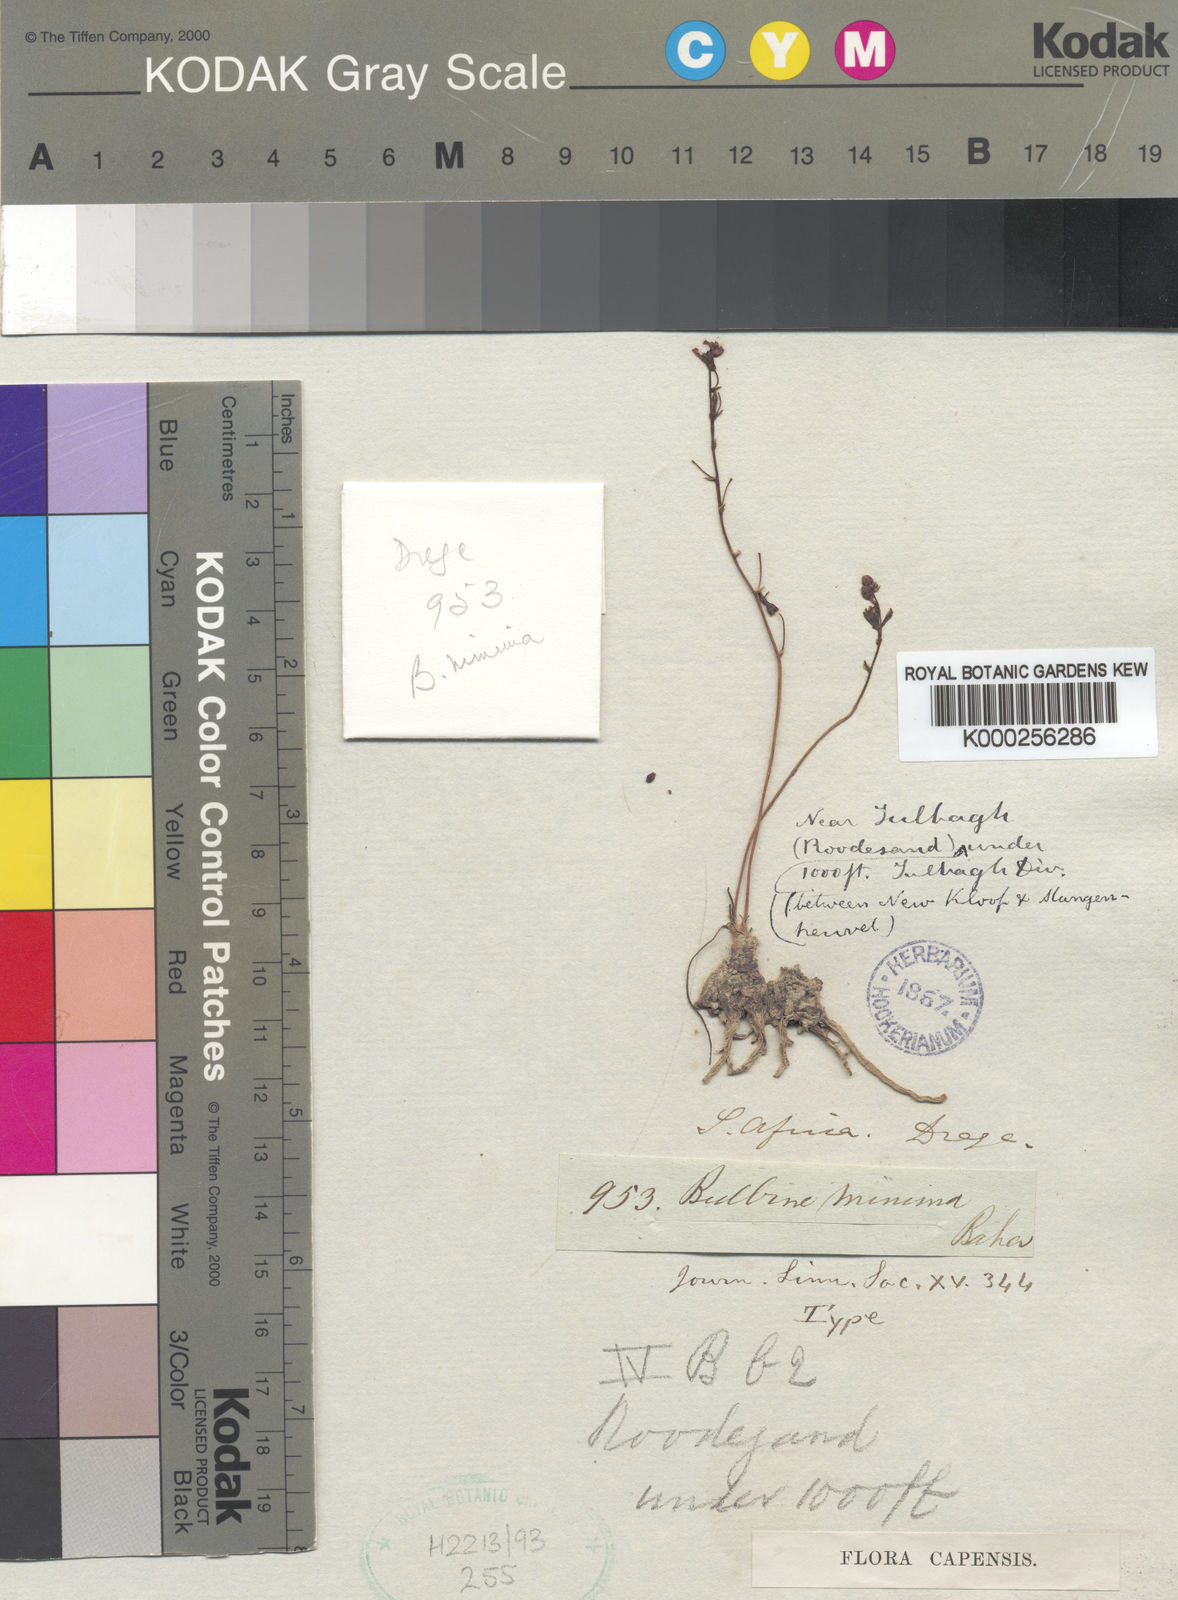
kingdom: Plantae
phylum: Tracheophyta
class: Liliopsida
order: Asparagales
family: Asphodelaceae
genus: Bulbine
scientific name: Bulbine favosa
